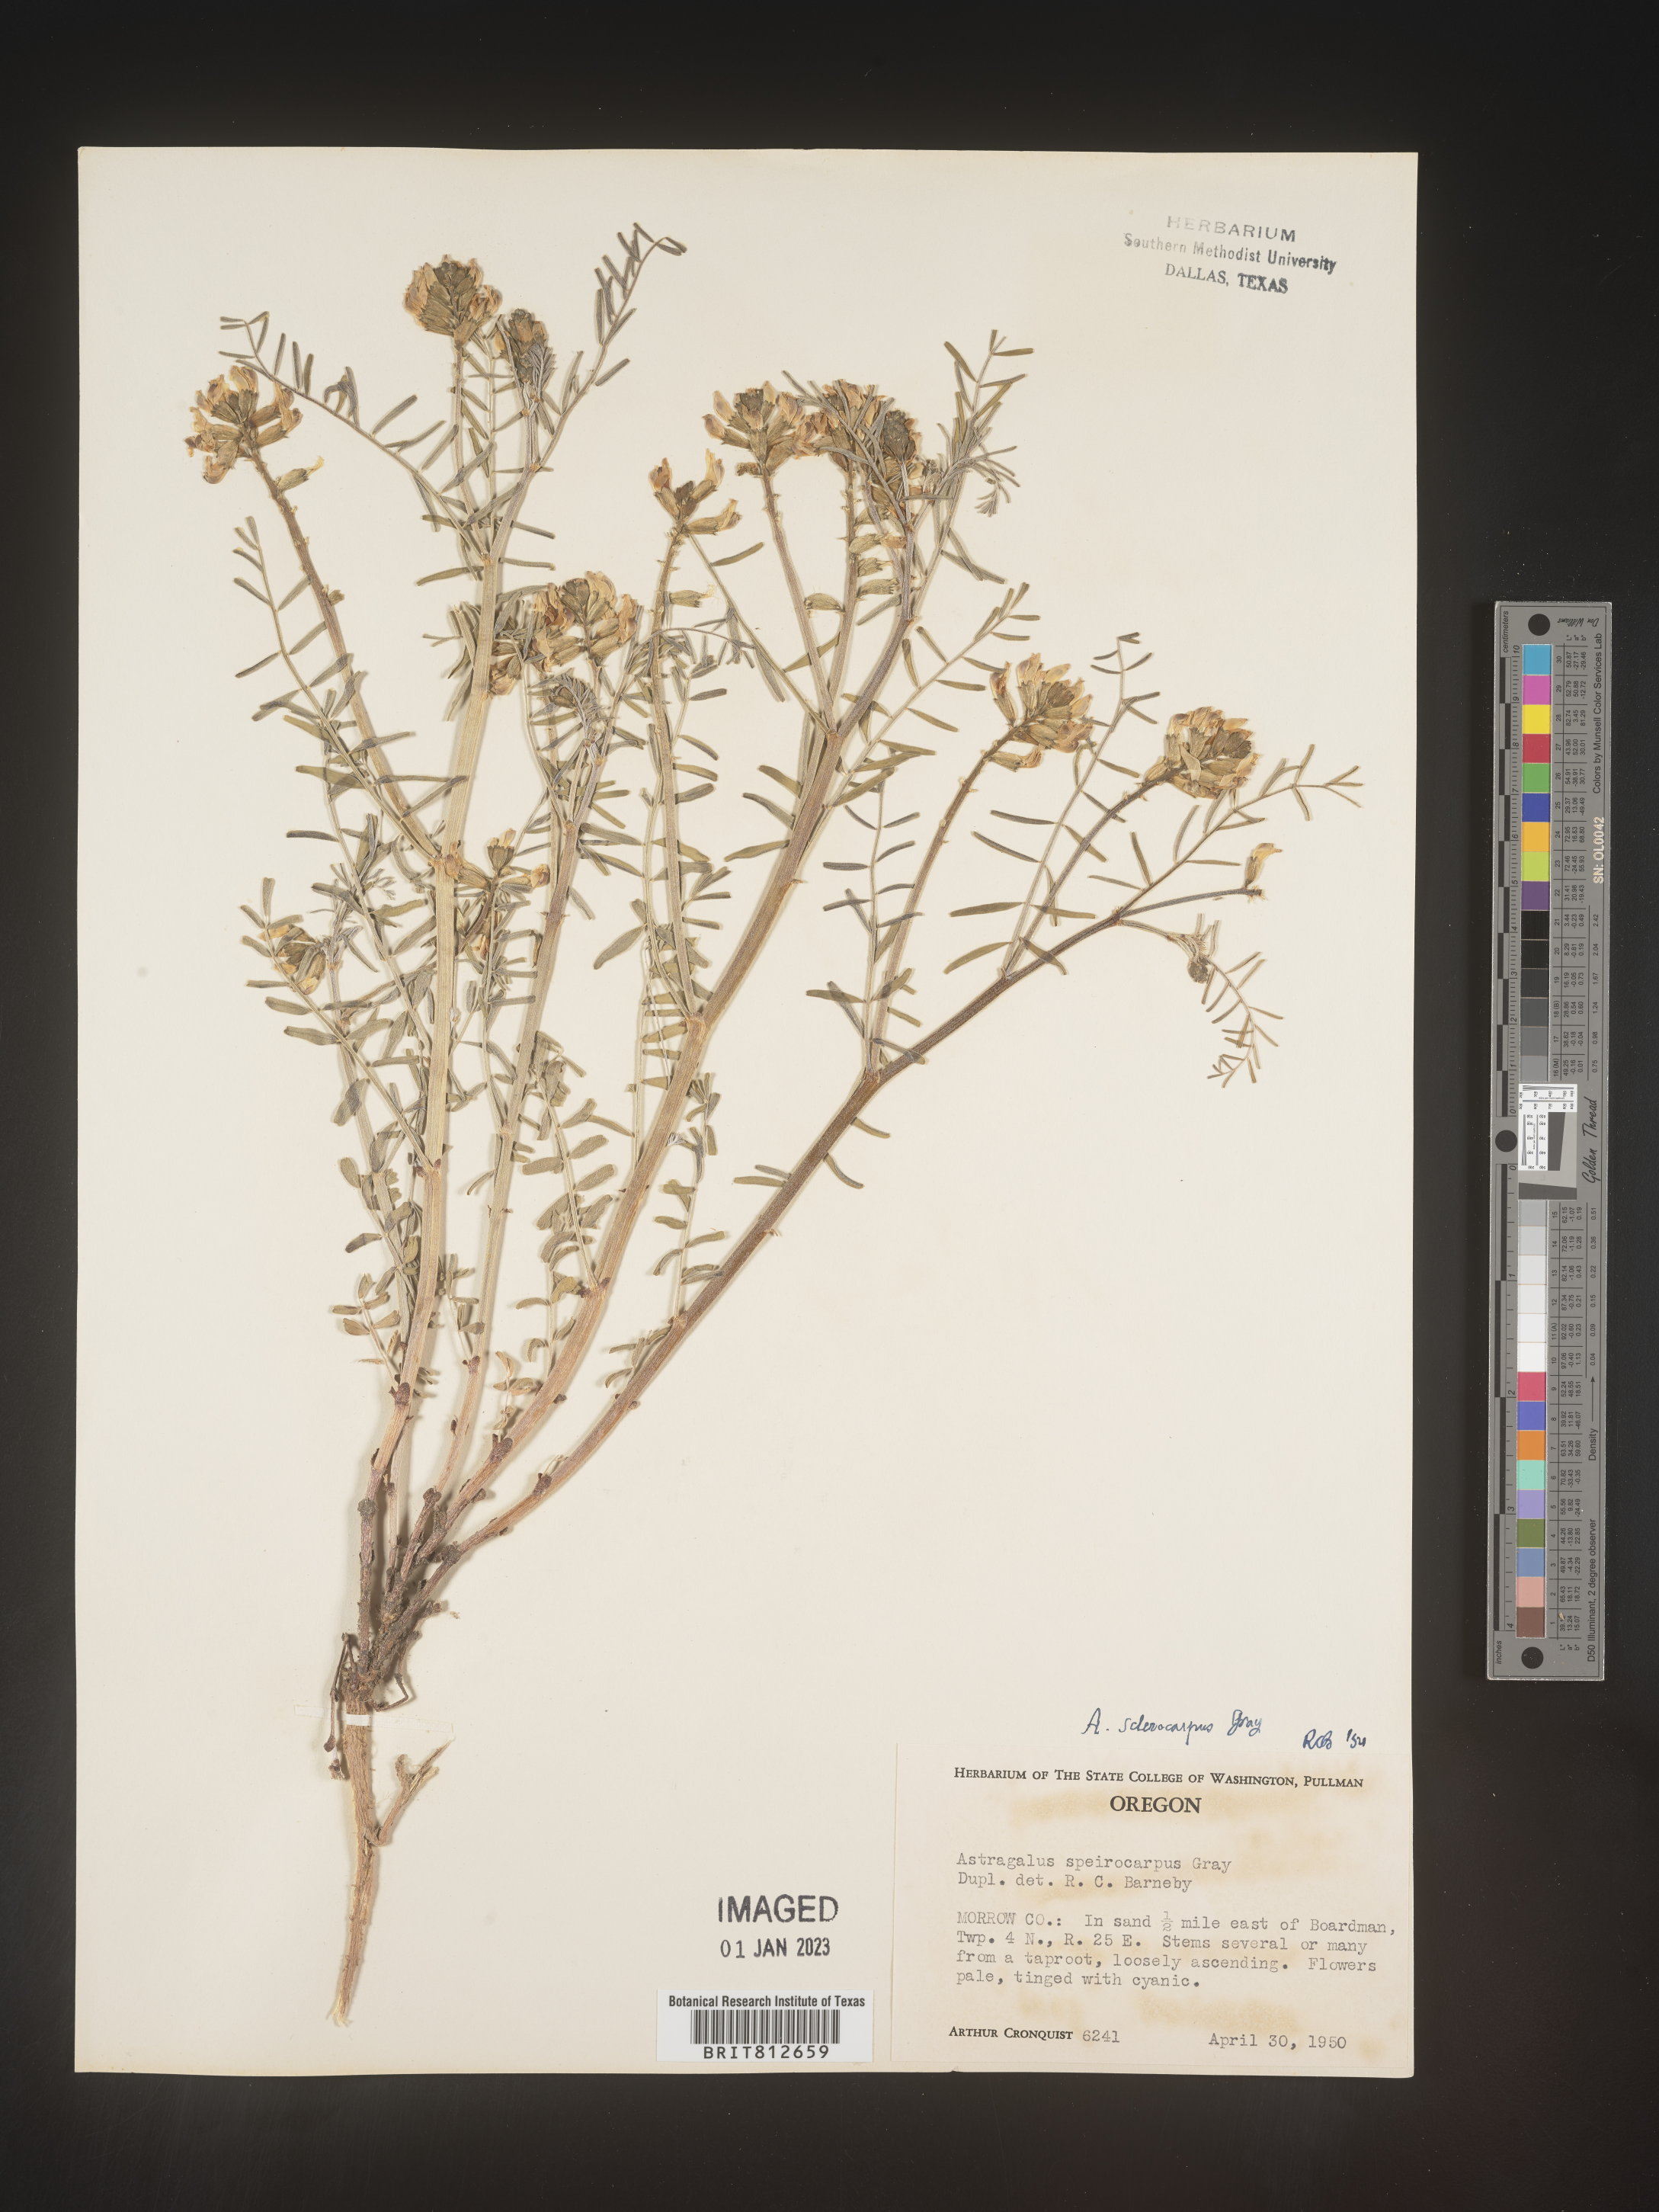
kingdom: Plantae
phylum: Tracheophyta
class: Magnoliopsida
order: Fabales
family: Fabaceae
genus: Astragalus
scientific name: Astragalus
